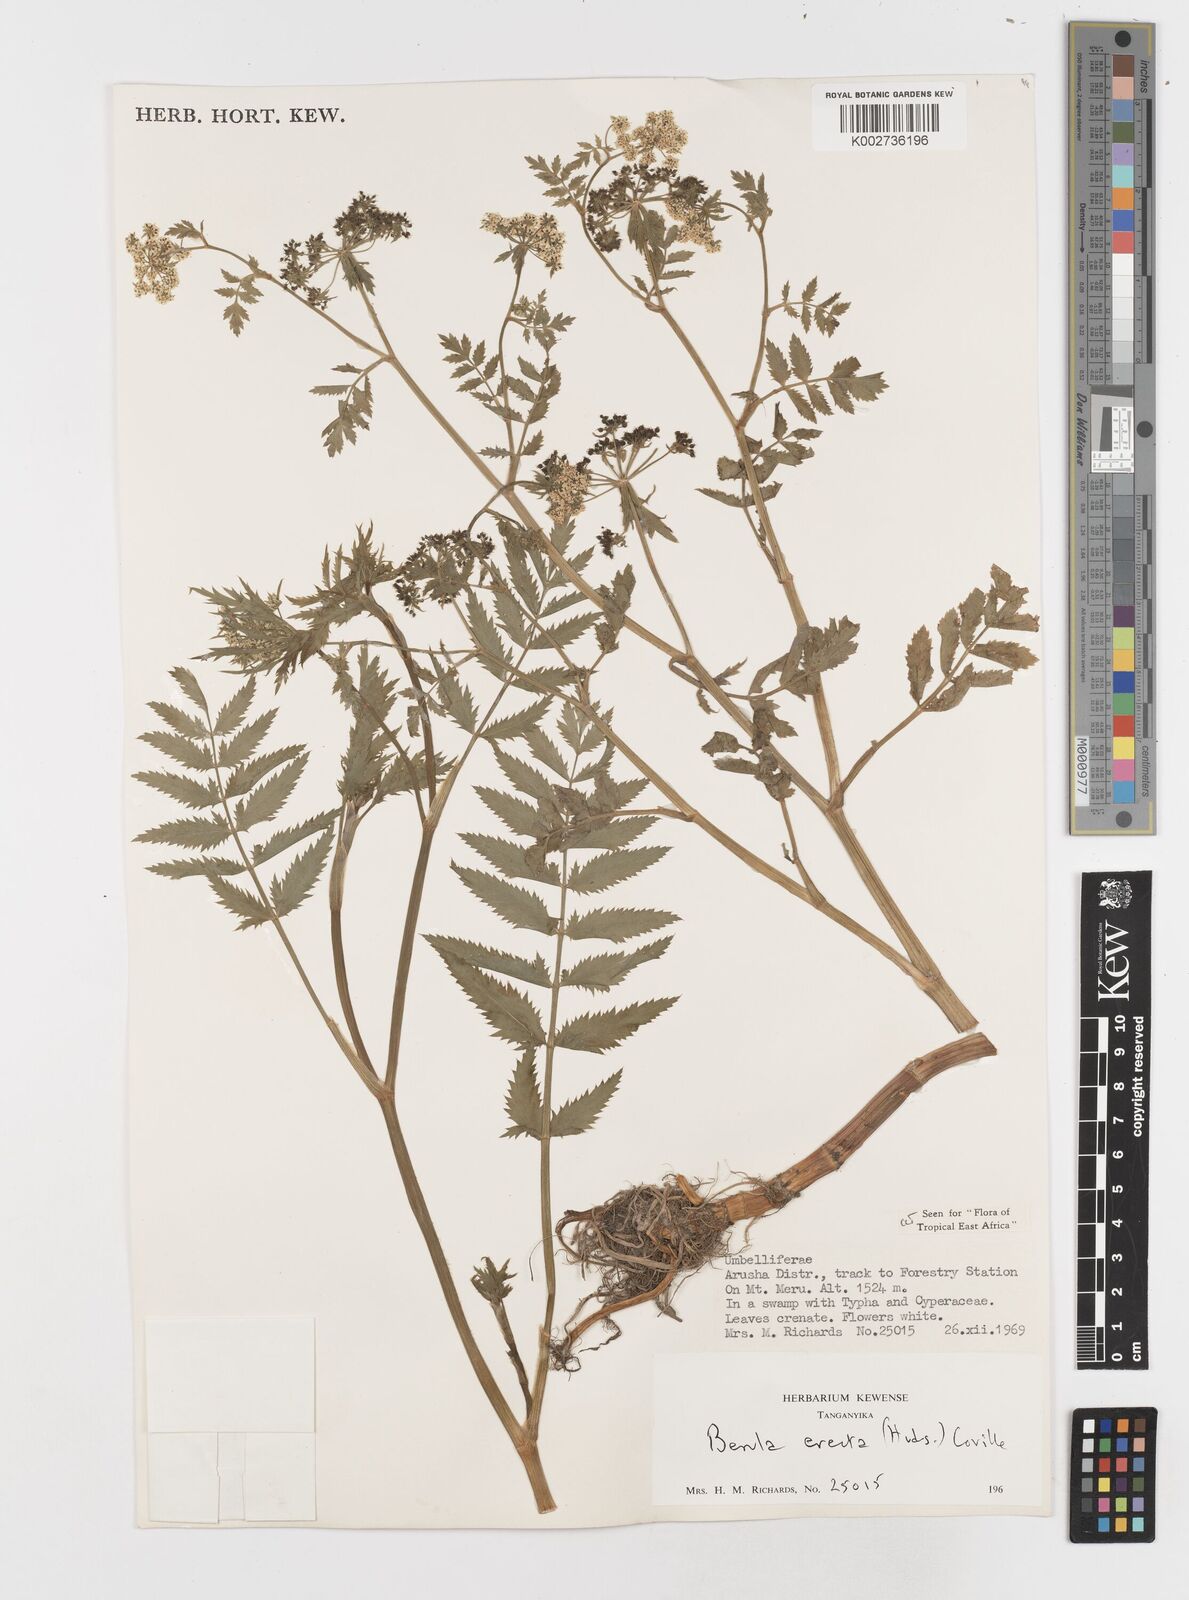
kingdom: Plantae
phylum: Tracheophyta
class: Magnoliopsida
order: Apiales
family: Apiaceae
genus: Berula
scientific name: Berula erecta
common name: Lesser water-parsnip
